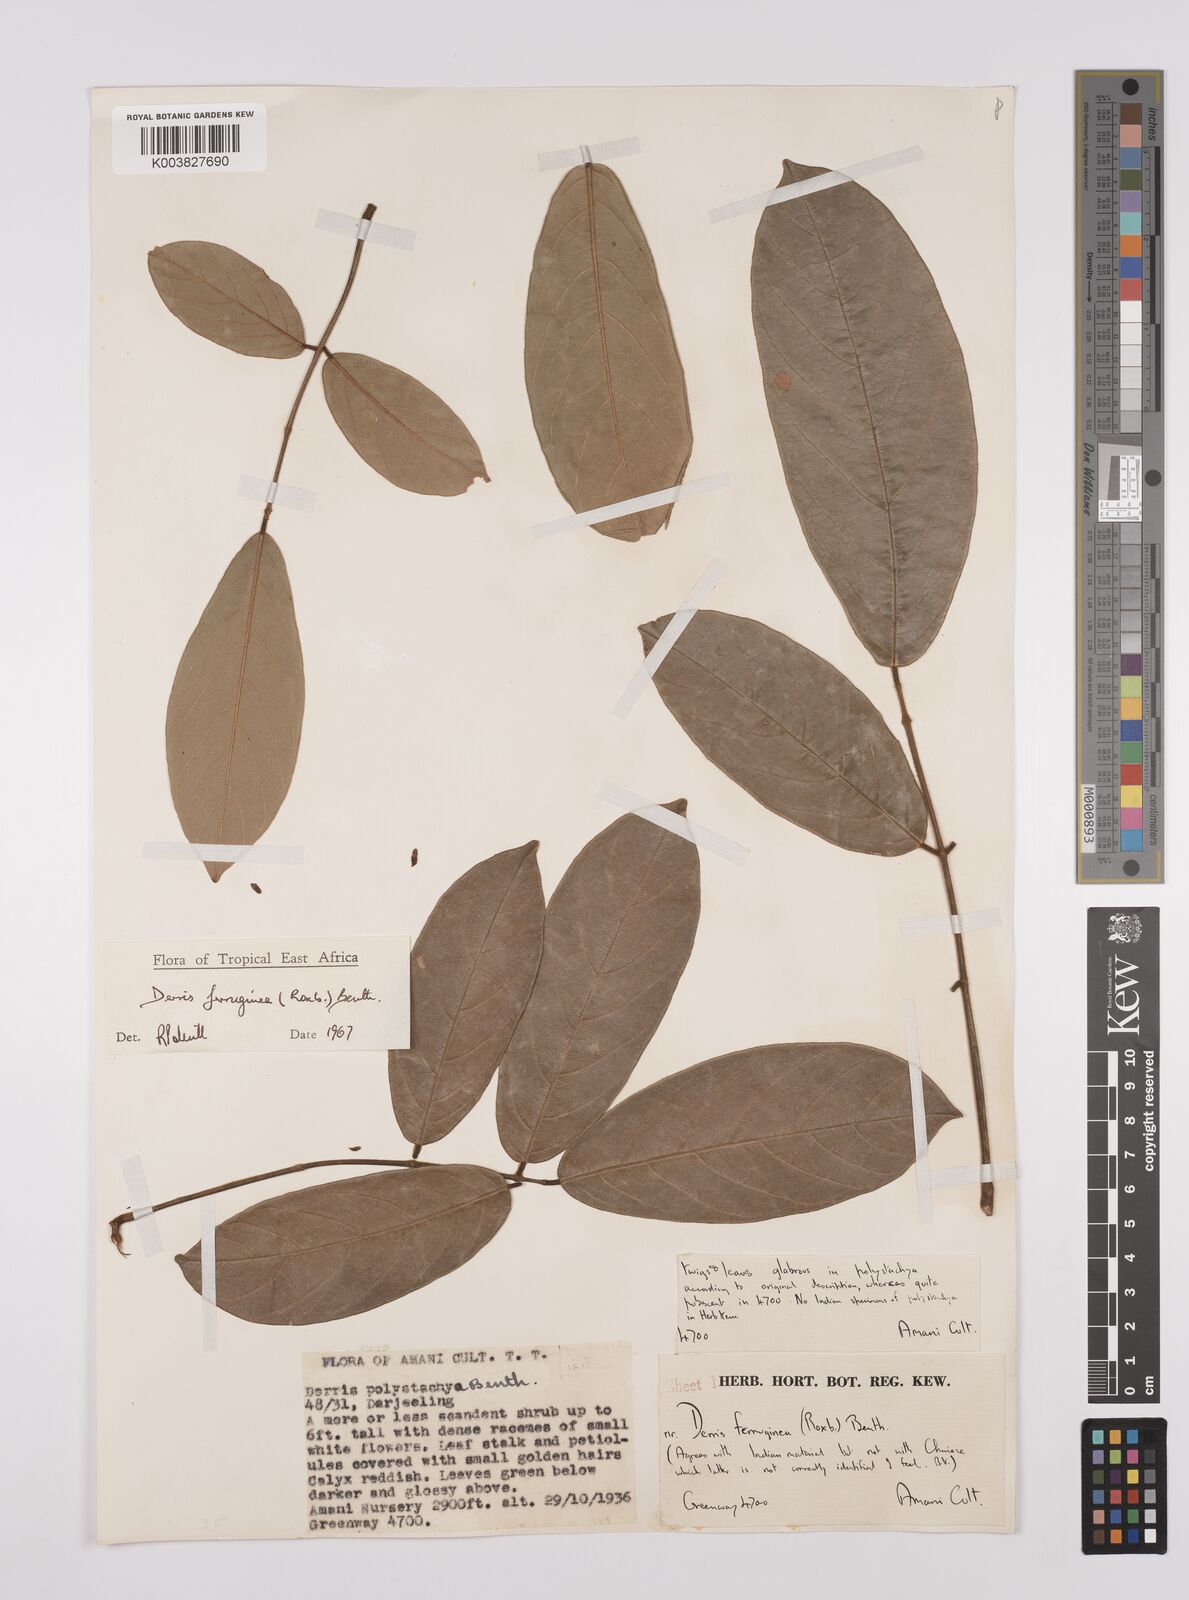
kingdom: Plantae
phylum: Tracheophyta
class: Magnoliopsida
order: Fabales
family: Fabaceae
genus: Derris
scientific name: Derris ferruginea
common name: Indian tubaroot
